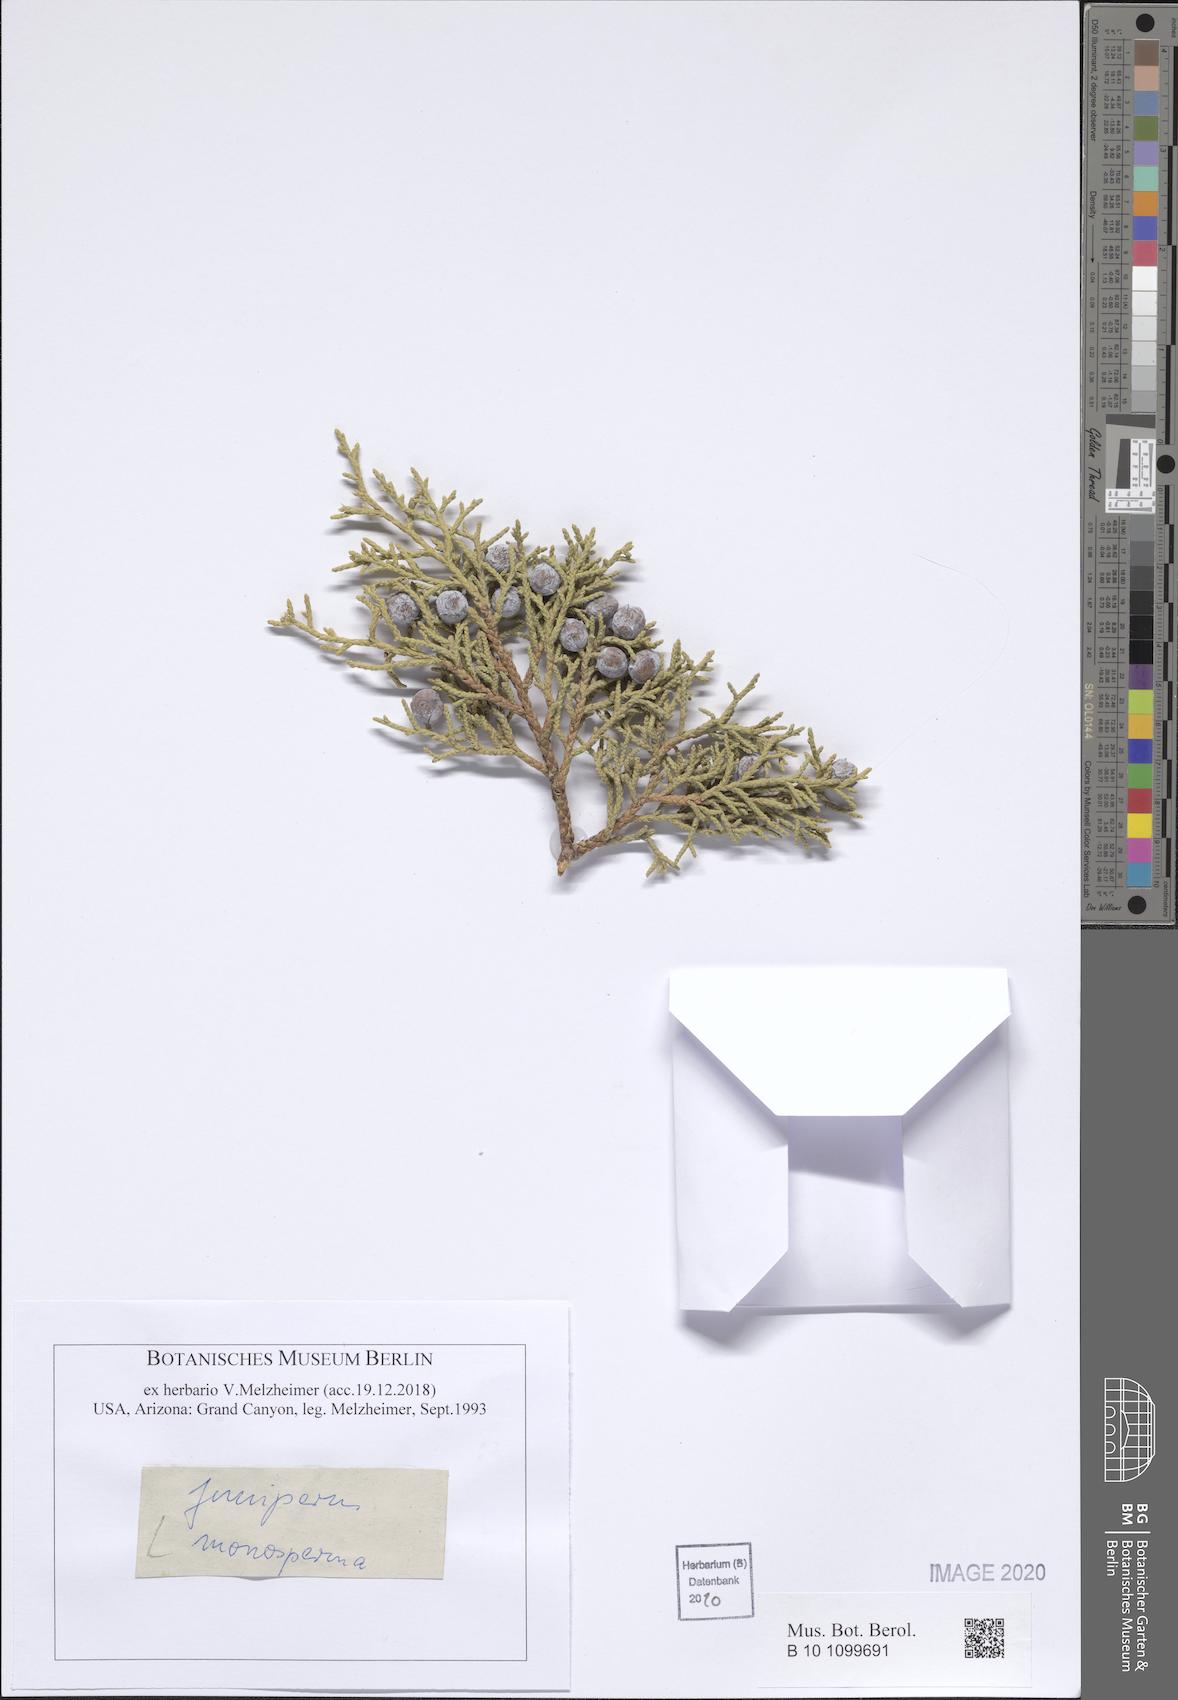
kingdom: Plantae
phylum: Tracheophyta
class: Pinopsida
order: Pinales
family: Cupressaceae
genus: Juniperus
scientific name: Juniperus monosperma
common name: One-seed juniper
